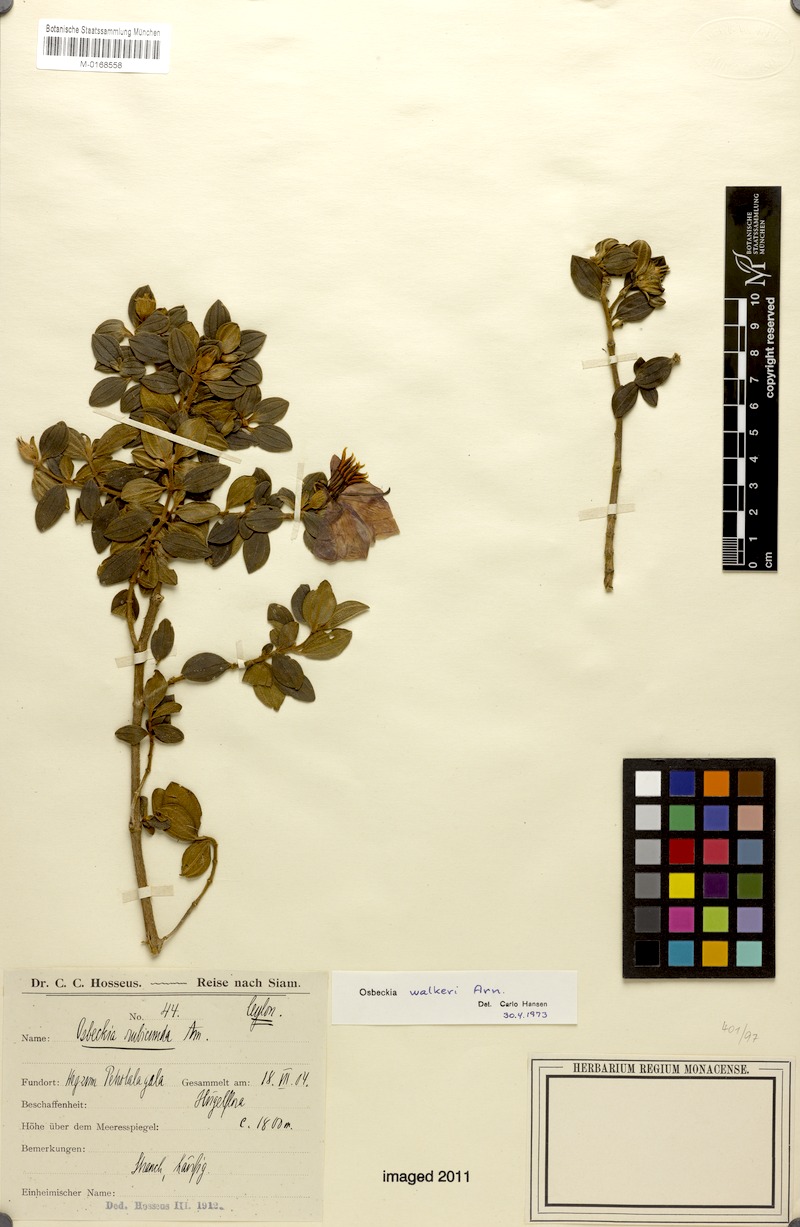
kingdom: Plantae
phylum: Tracheophyta
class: Magnoliopsida
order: Myrtales
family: Melastomataceae
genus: Osbeckia
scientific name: Osbeckia walkeri
